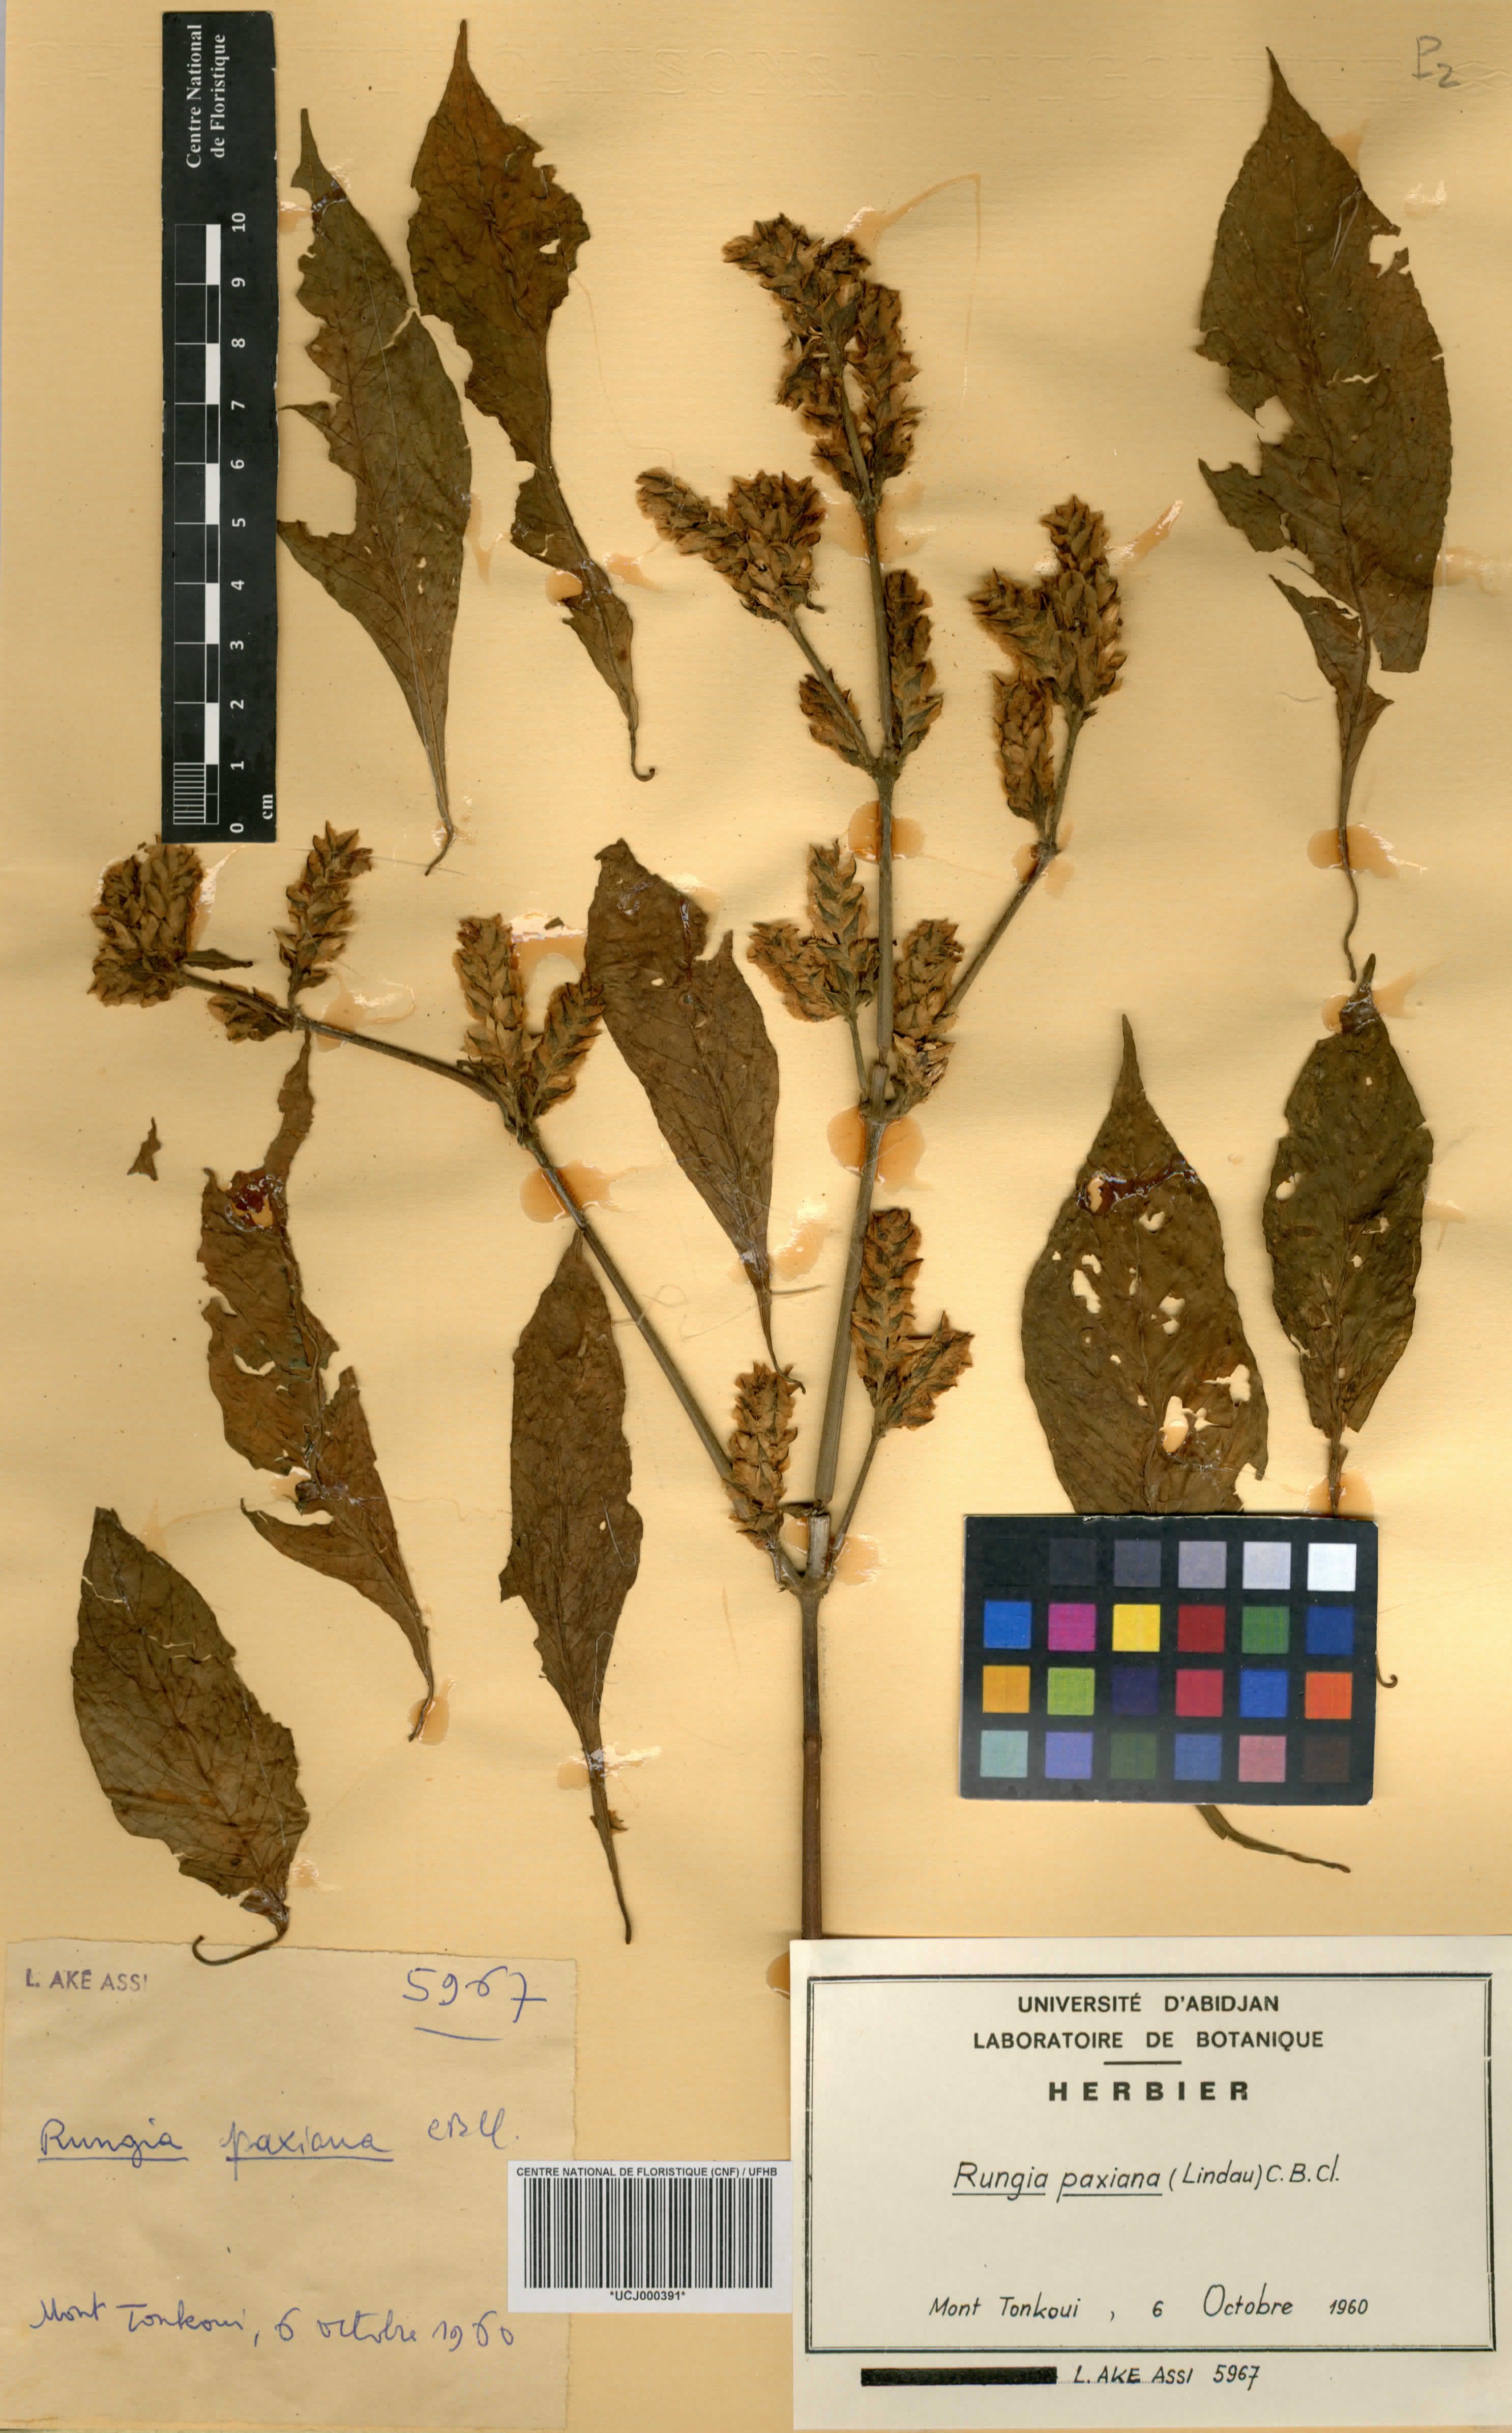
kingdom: Plantae
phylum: Tracheophyta
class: Magnoliopsida
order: Lamiales
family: Acanthaceae
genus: Rungia
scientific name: Rungia paxiana
